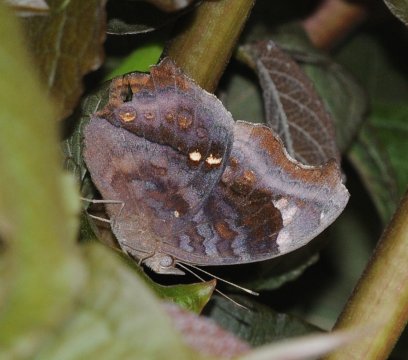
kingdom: Animalia
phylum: Arthropoda
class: Insecta
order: Lepidoptera
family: Nymphalidae
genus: Junonia
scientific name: Junonia natalica
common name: Natal Pansy
